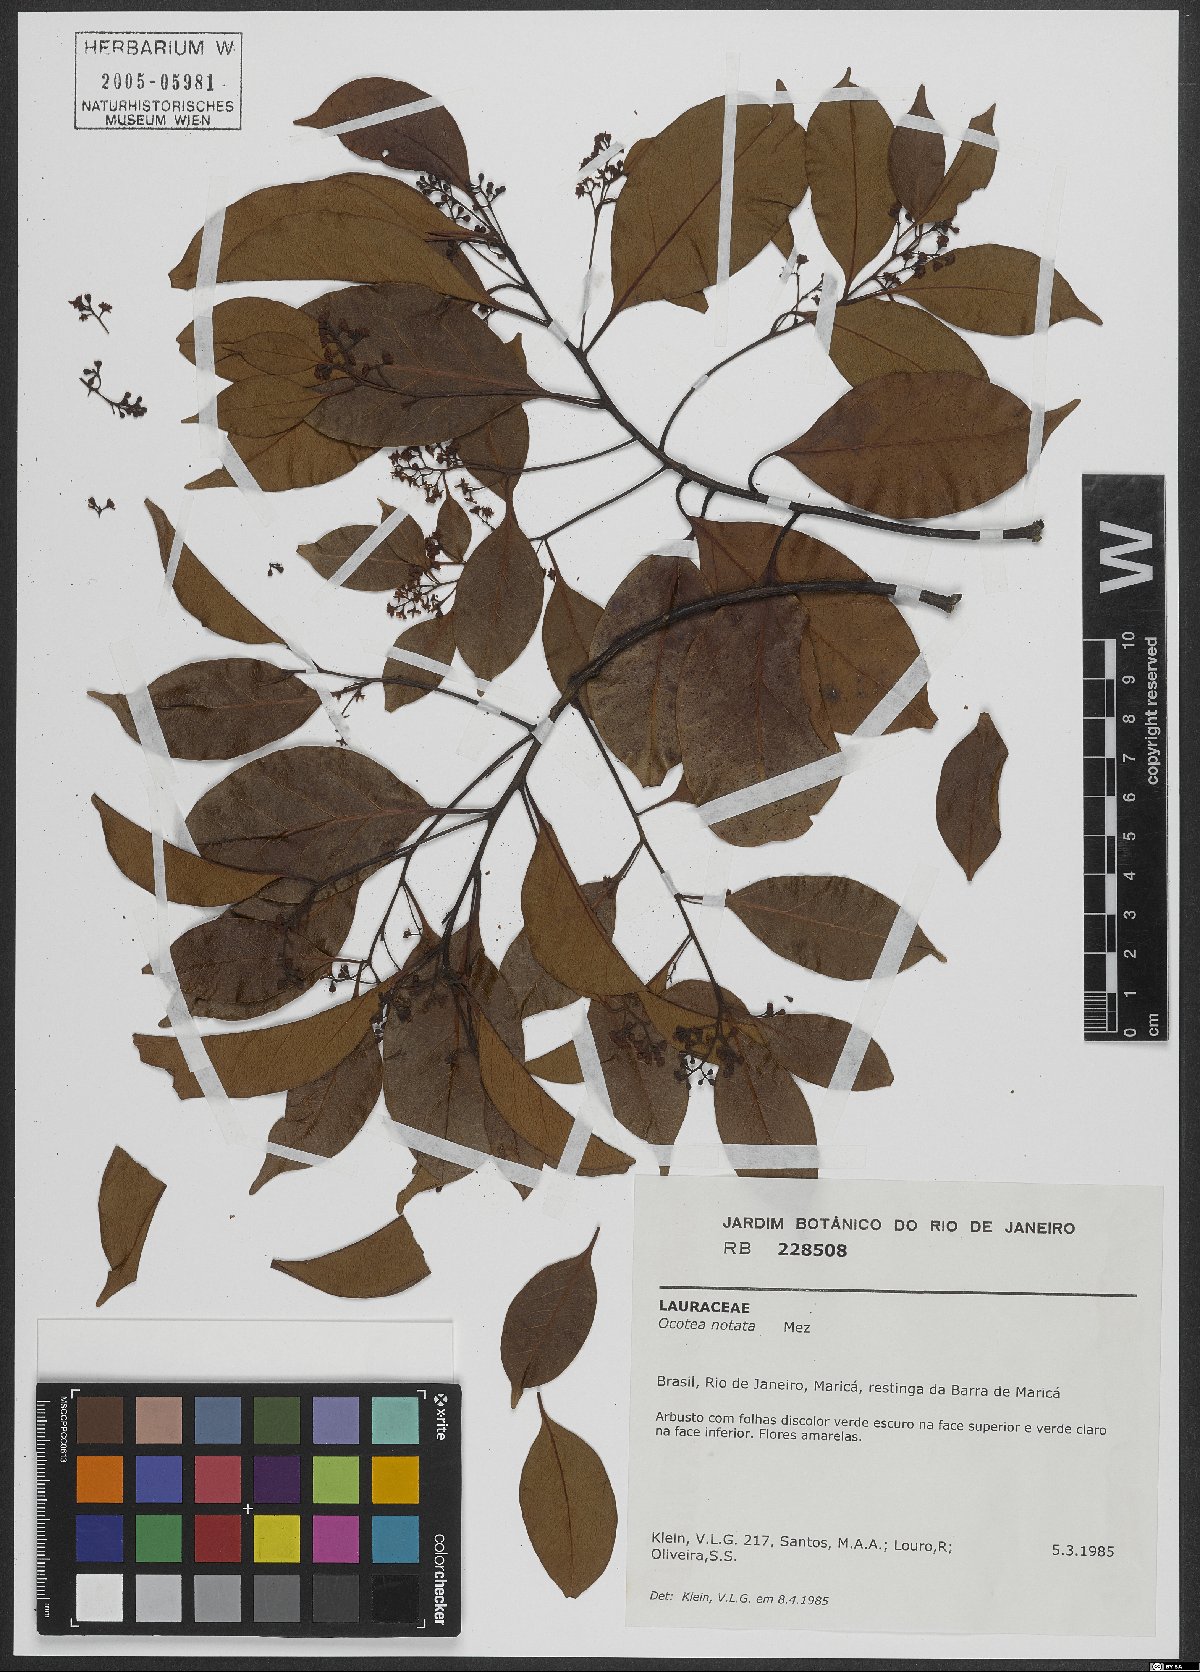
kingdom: Plantae
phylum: Tracheophyta
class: Magnoliopsida
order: Laurales
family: Lauraceae
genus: Mespilodaphne
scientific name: Mespilodaphne notata
